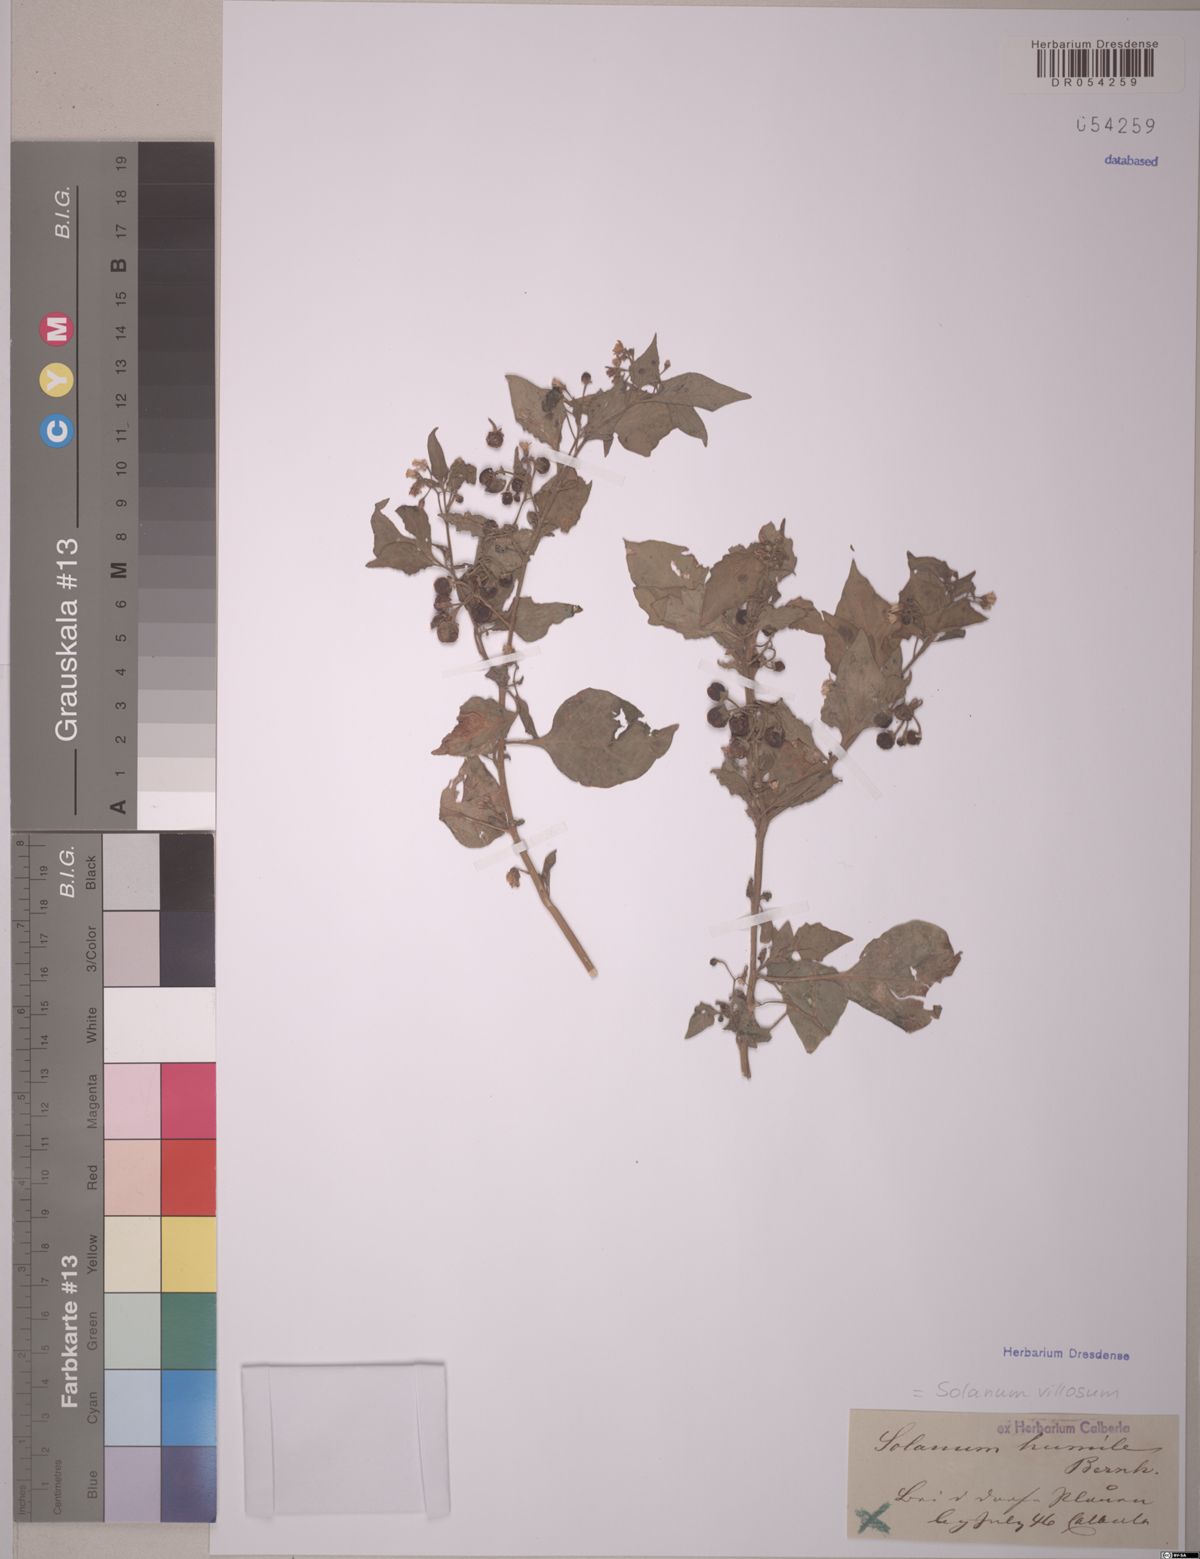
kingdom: Plantae
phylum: Tracheophyta
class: Magnoliopsida
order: Solanales
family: Solanaceae
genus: Solanum
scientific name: Solanum villosum
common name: Red nightshade
